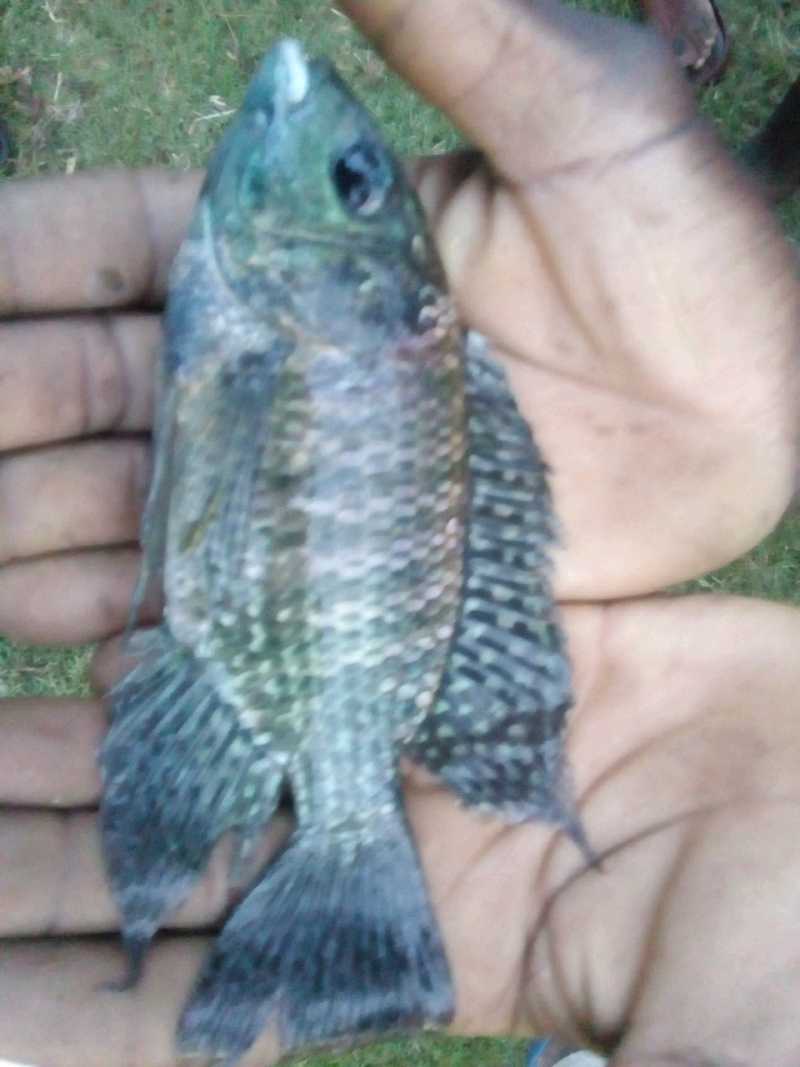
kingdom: Animalia
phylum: Chordata
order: Perciformes
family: Cichlidae
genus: Oreochromis
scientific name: Oreochromis leucostictus
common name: Blue spotted tilapia
